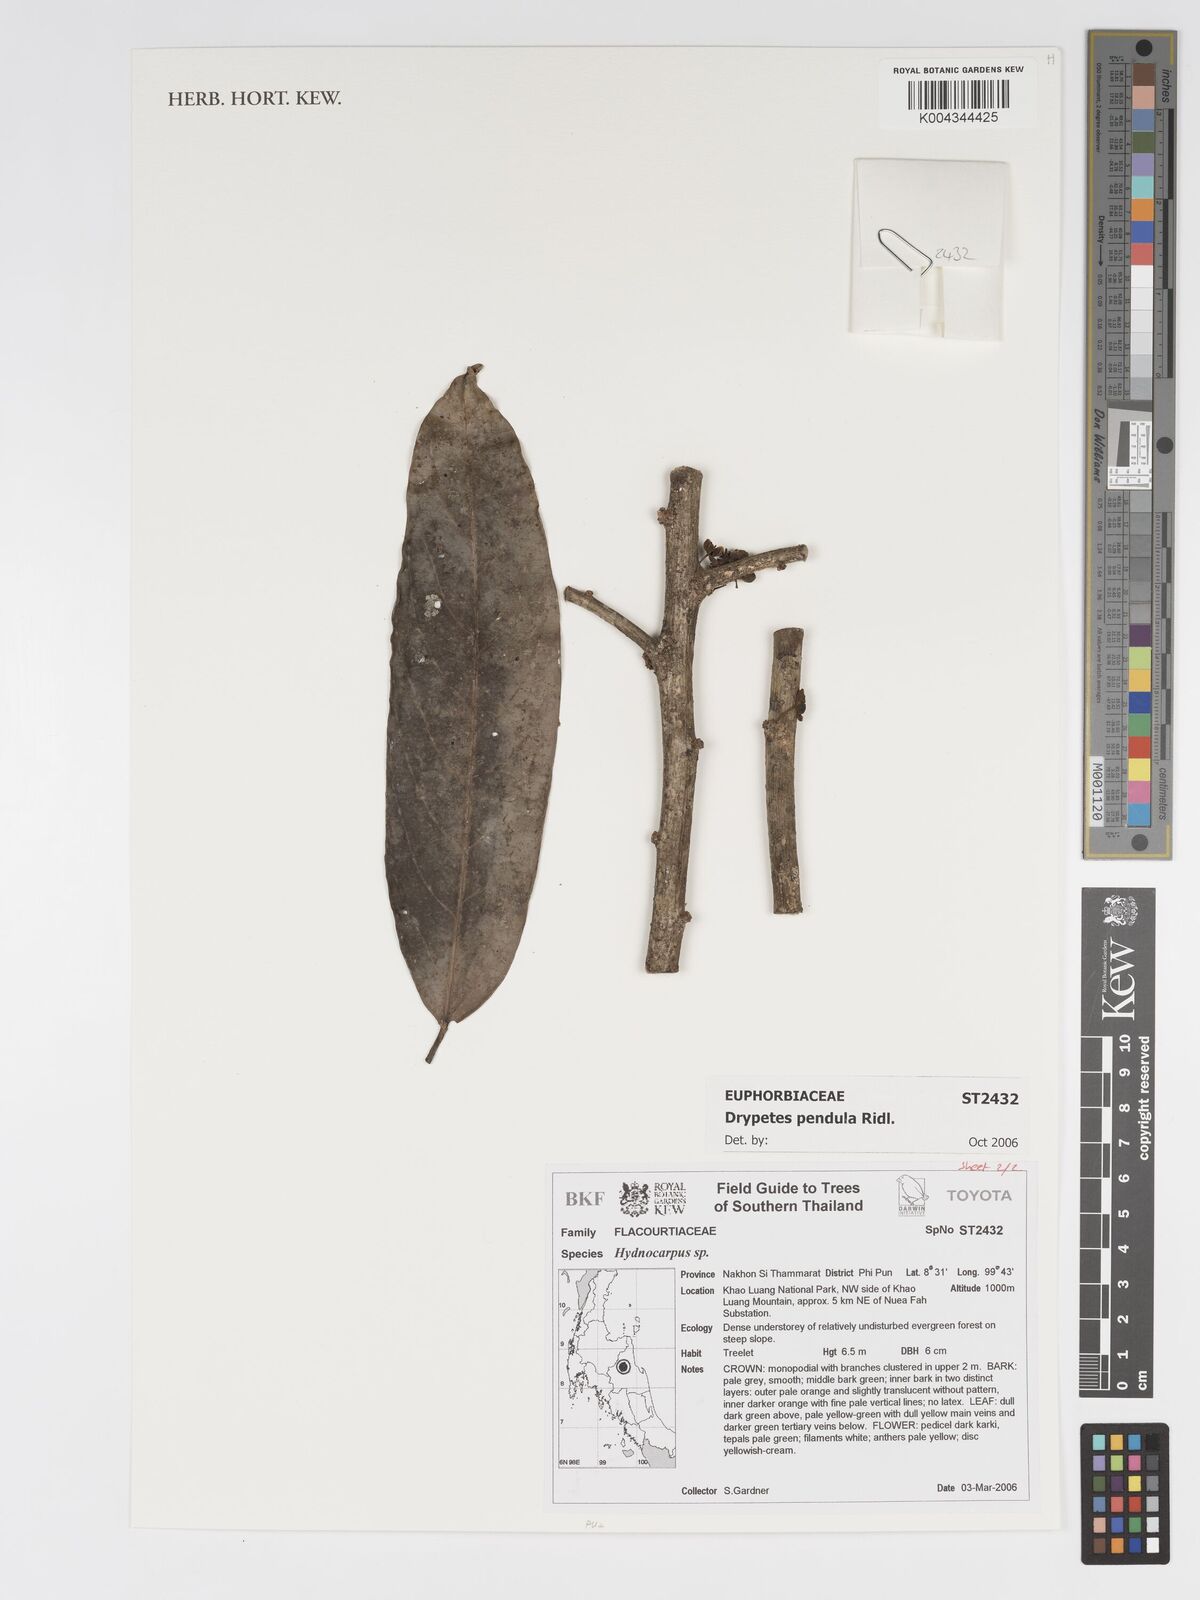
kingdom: Plantae
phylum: Tracheophyta
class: Magnoliopsida
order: Malpighiales
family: Putranjivaceae
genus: Drypetes
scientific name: Drypetes pendula
